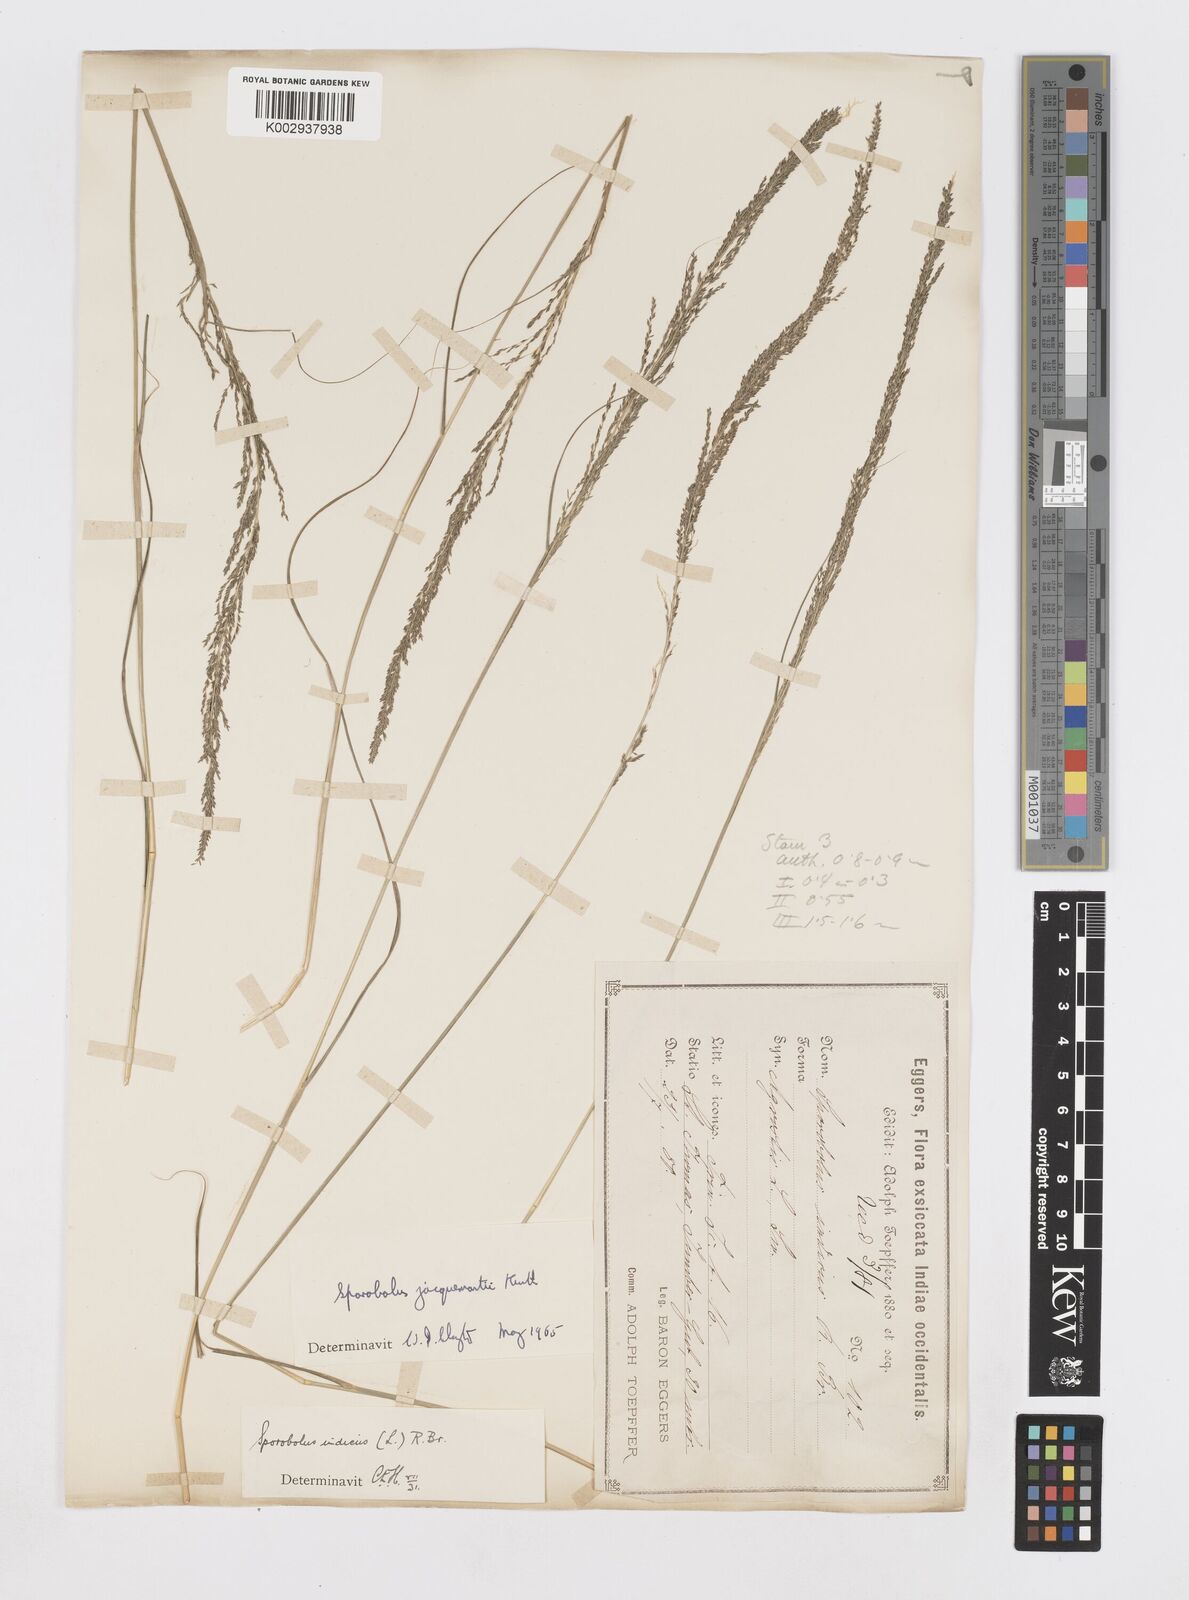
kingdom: Plantae
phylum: Tracheophyta
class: Liliopsida
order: Poales
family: Poaceae
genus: Sporobolus
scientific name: Sporobolus pyramidalis
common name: West indian dropseed
